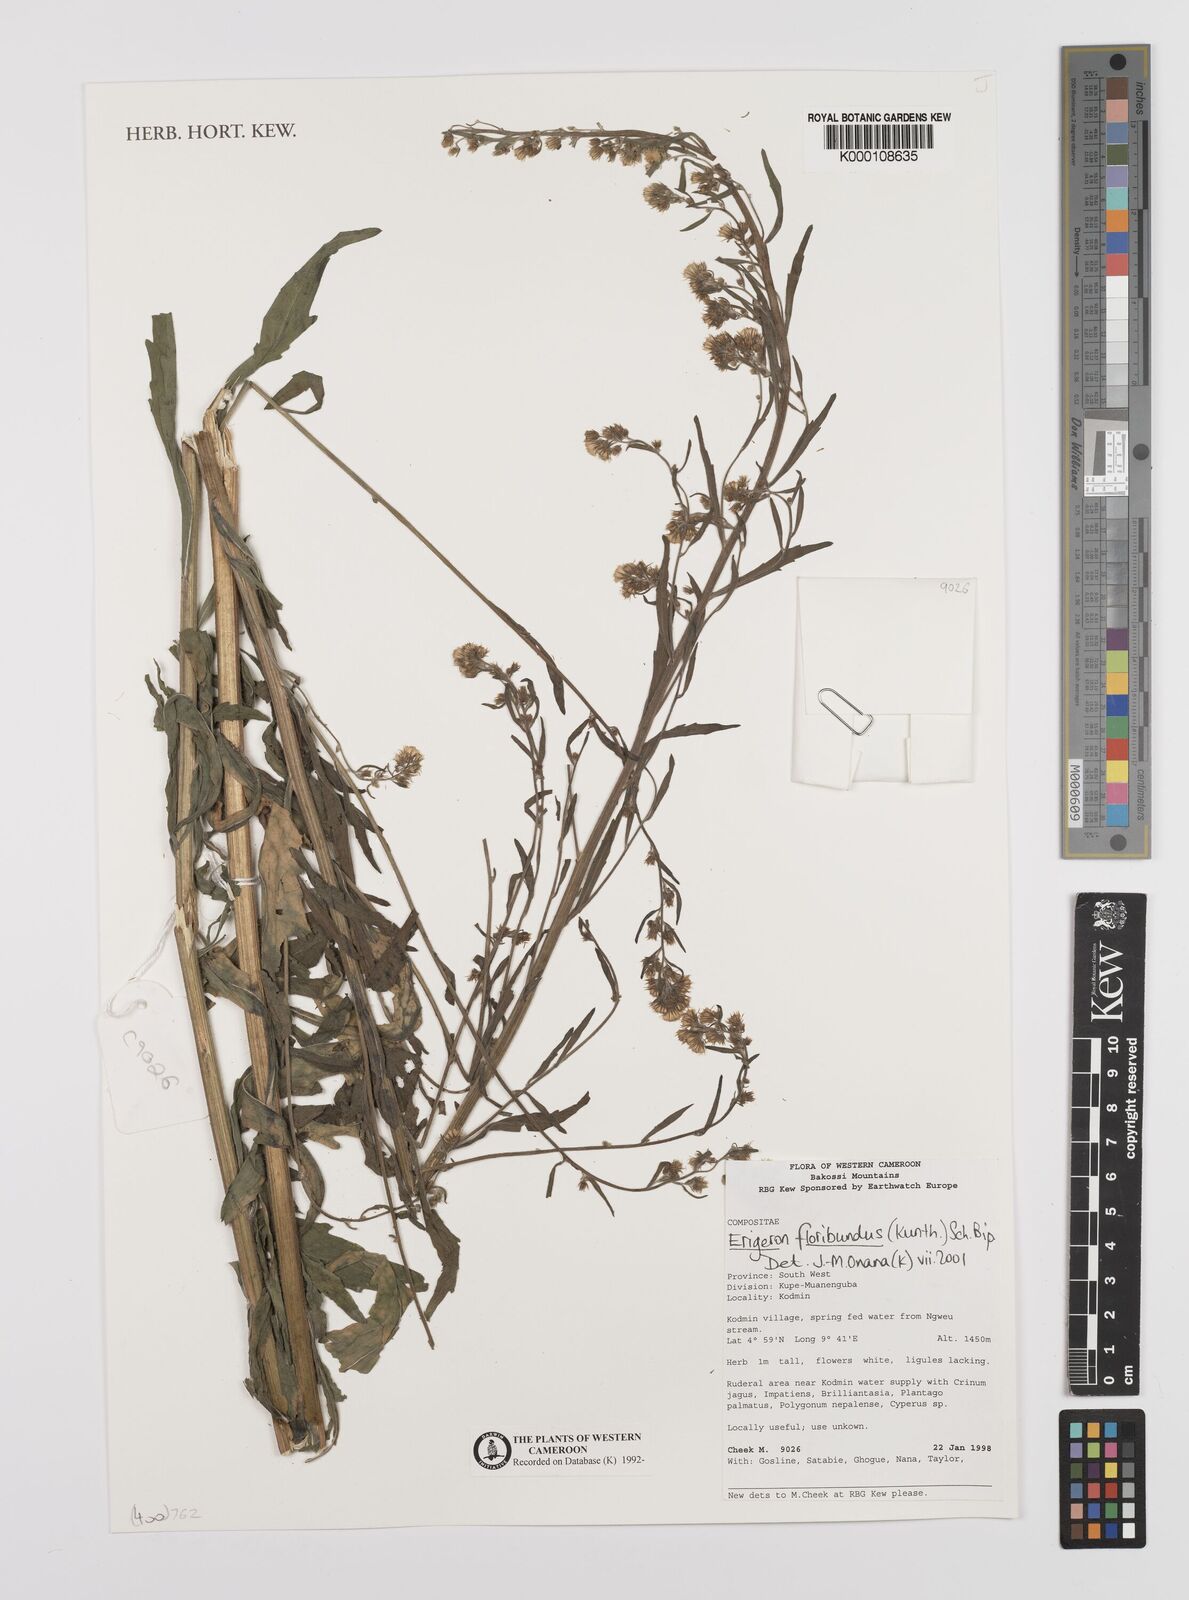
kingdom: Plantae
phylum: Tracheophyta
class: Magnoliopsida
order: Asterales
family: Asteraceae
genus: Erigeron
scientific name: Erigeron bonariensis
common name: Argentine fleabane
